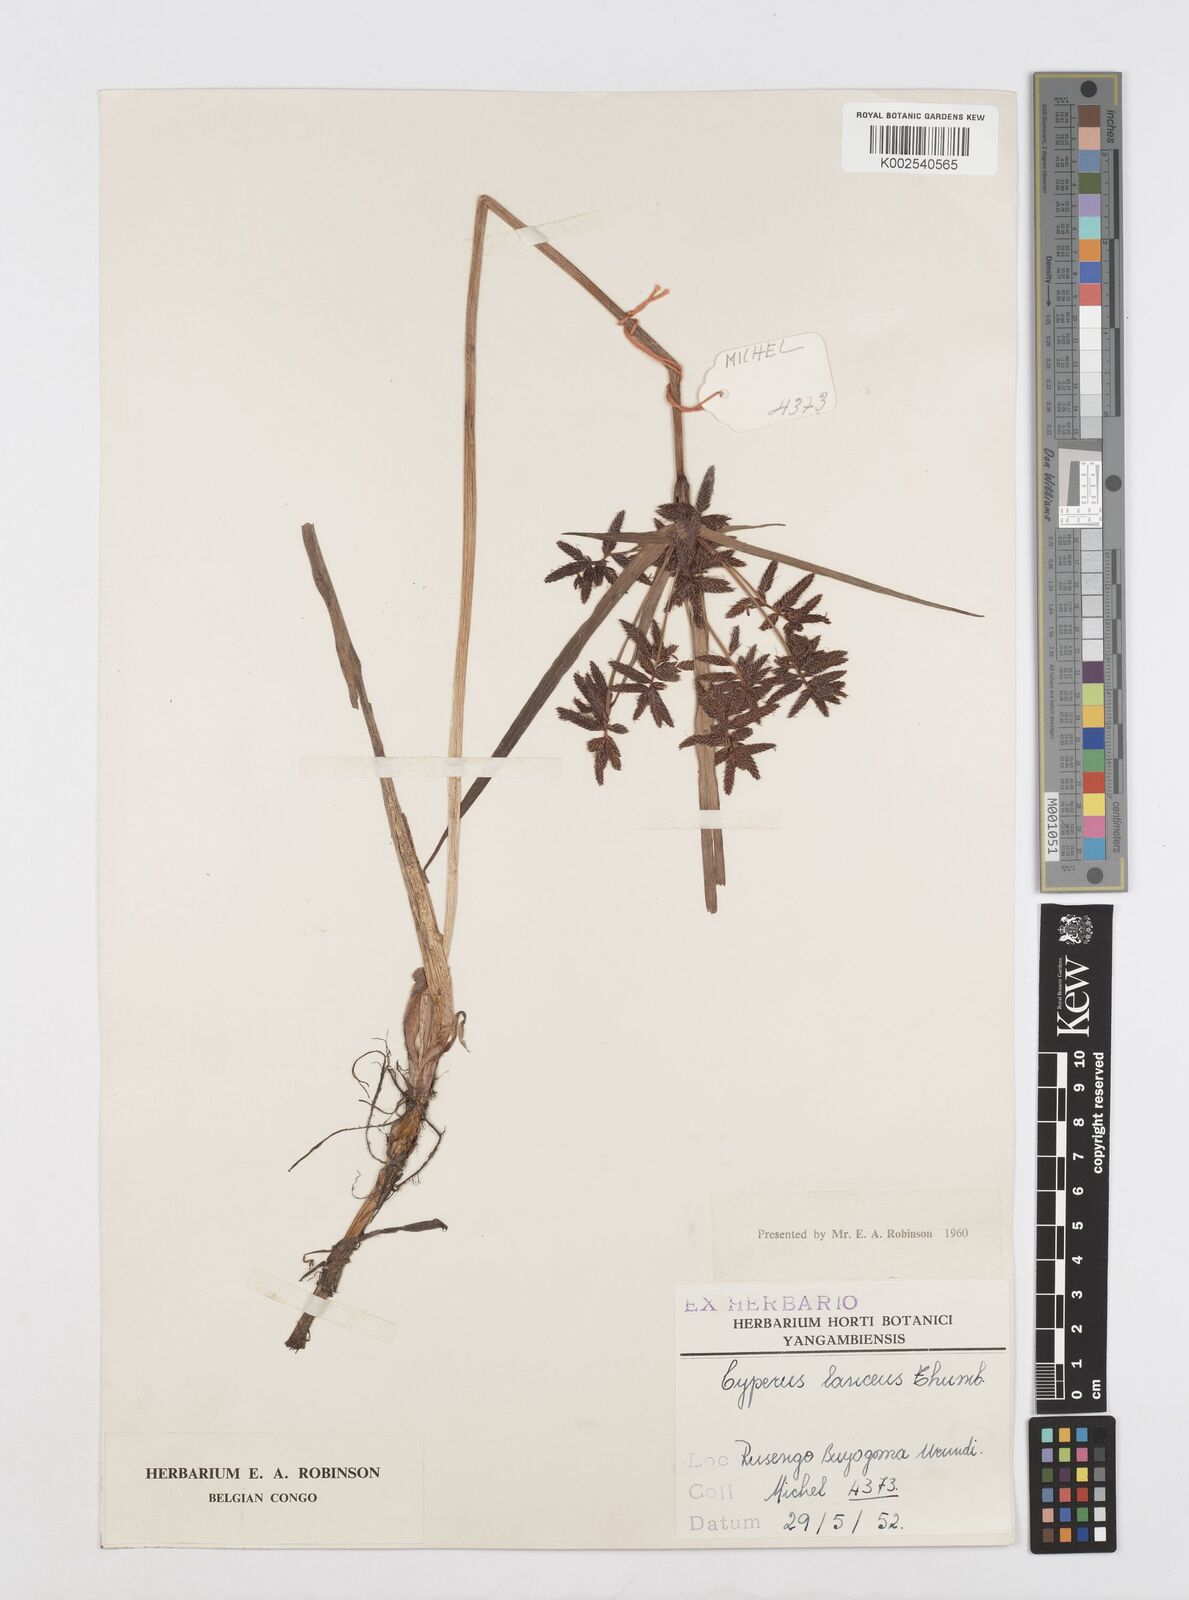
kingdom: Plantae
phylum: Tracheophyta
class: Liliopsida
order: Poales
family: Cyperaceae
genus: Cyperus
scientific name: Cyperus nitidus
